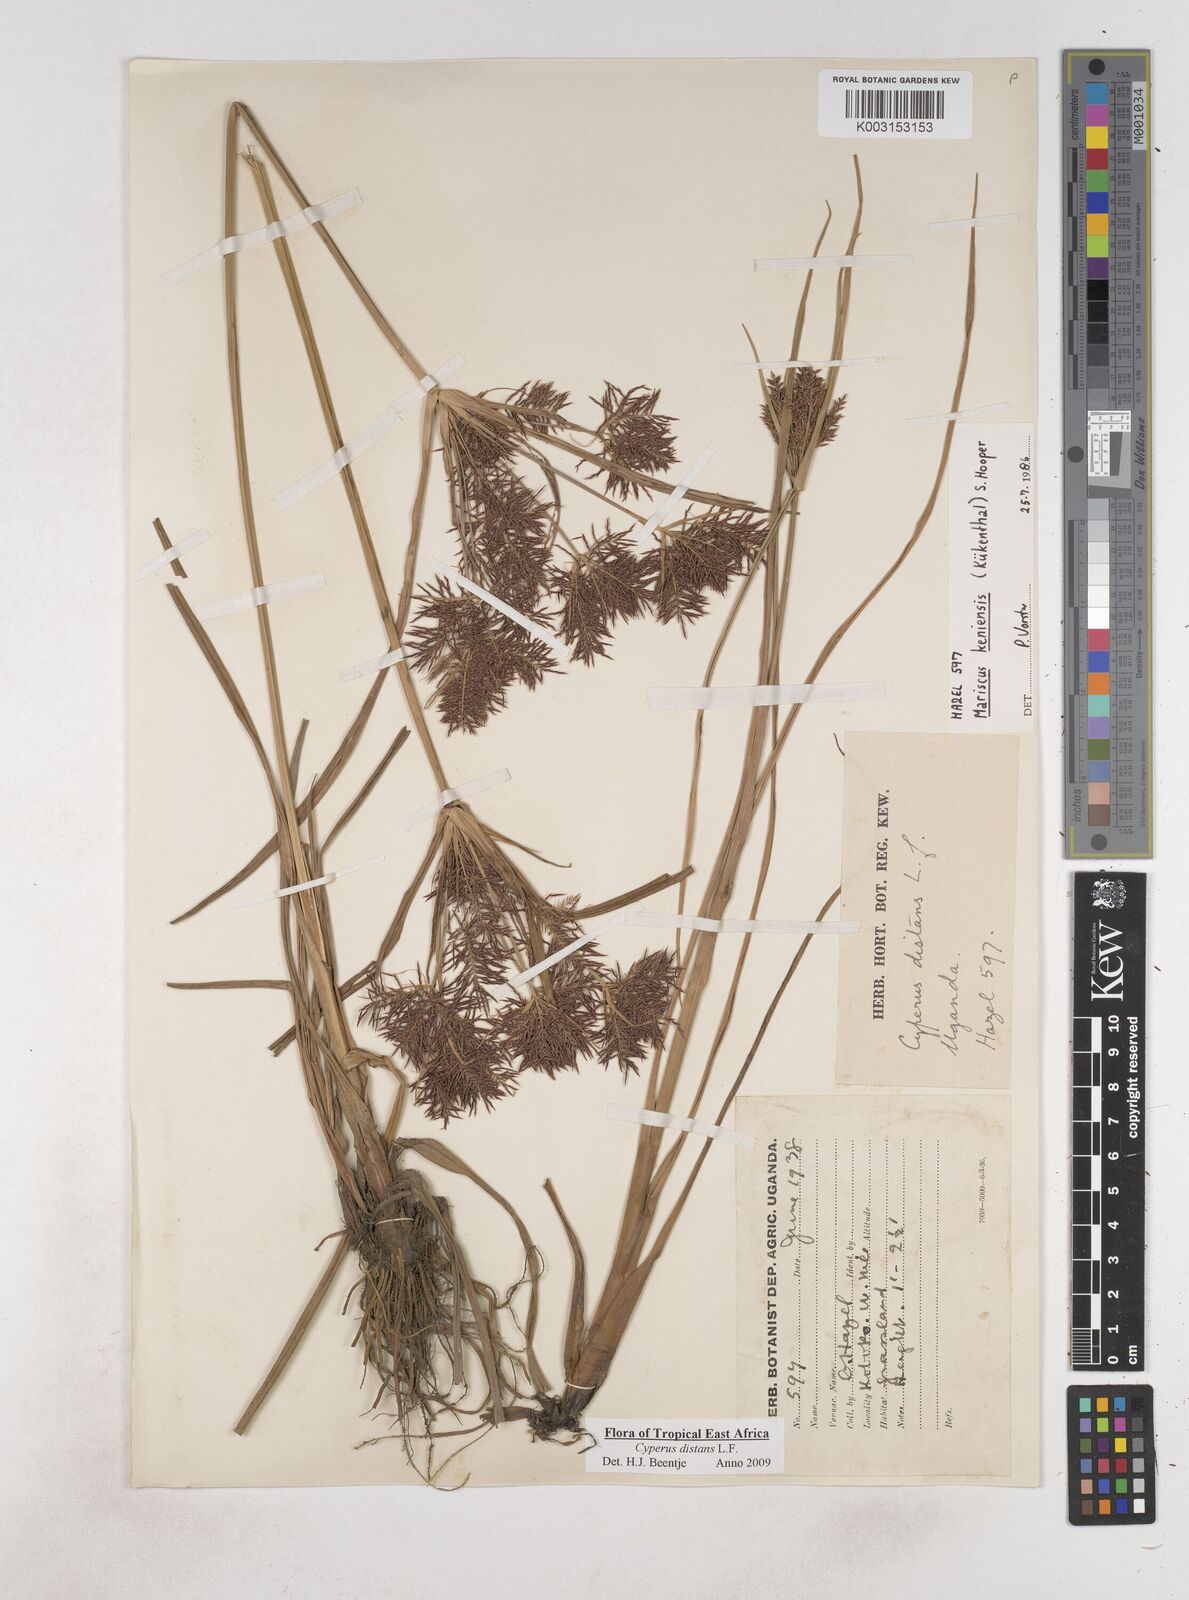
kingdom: Plantae
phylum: Tracheophyta
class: Liliopsida
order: Poales
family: Cyperaceae
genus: Cyperus
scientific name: Cyperus distans
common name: Slender cyperus
